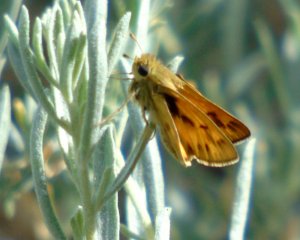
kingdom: Animalia
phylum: Arthropoda
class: Insecta
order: Lepidoptera
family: Hesperiidae
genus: Hylephila
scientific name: Hylephila phyleus
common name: Fiery Skipper
